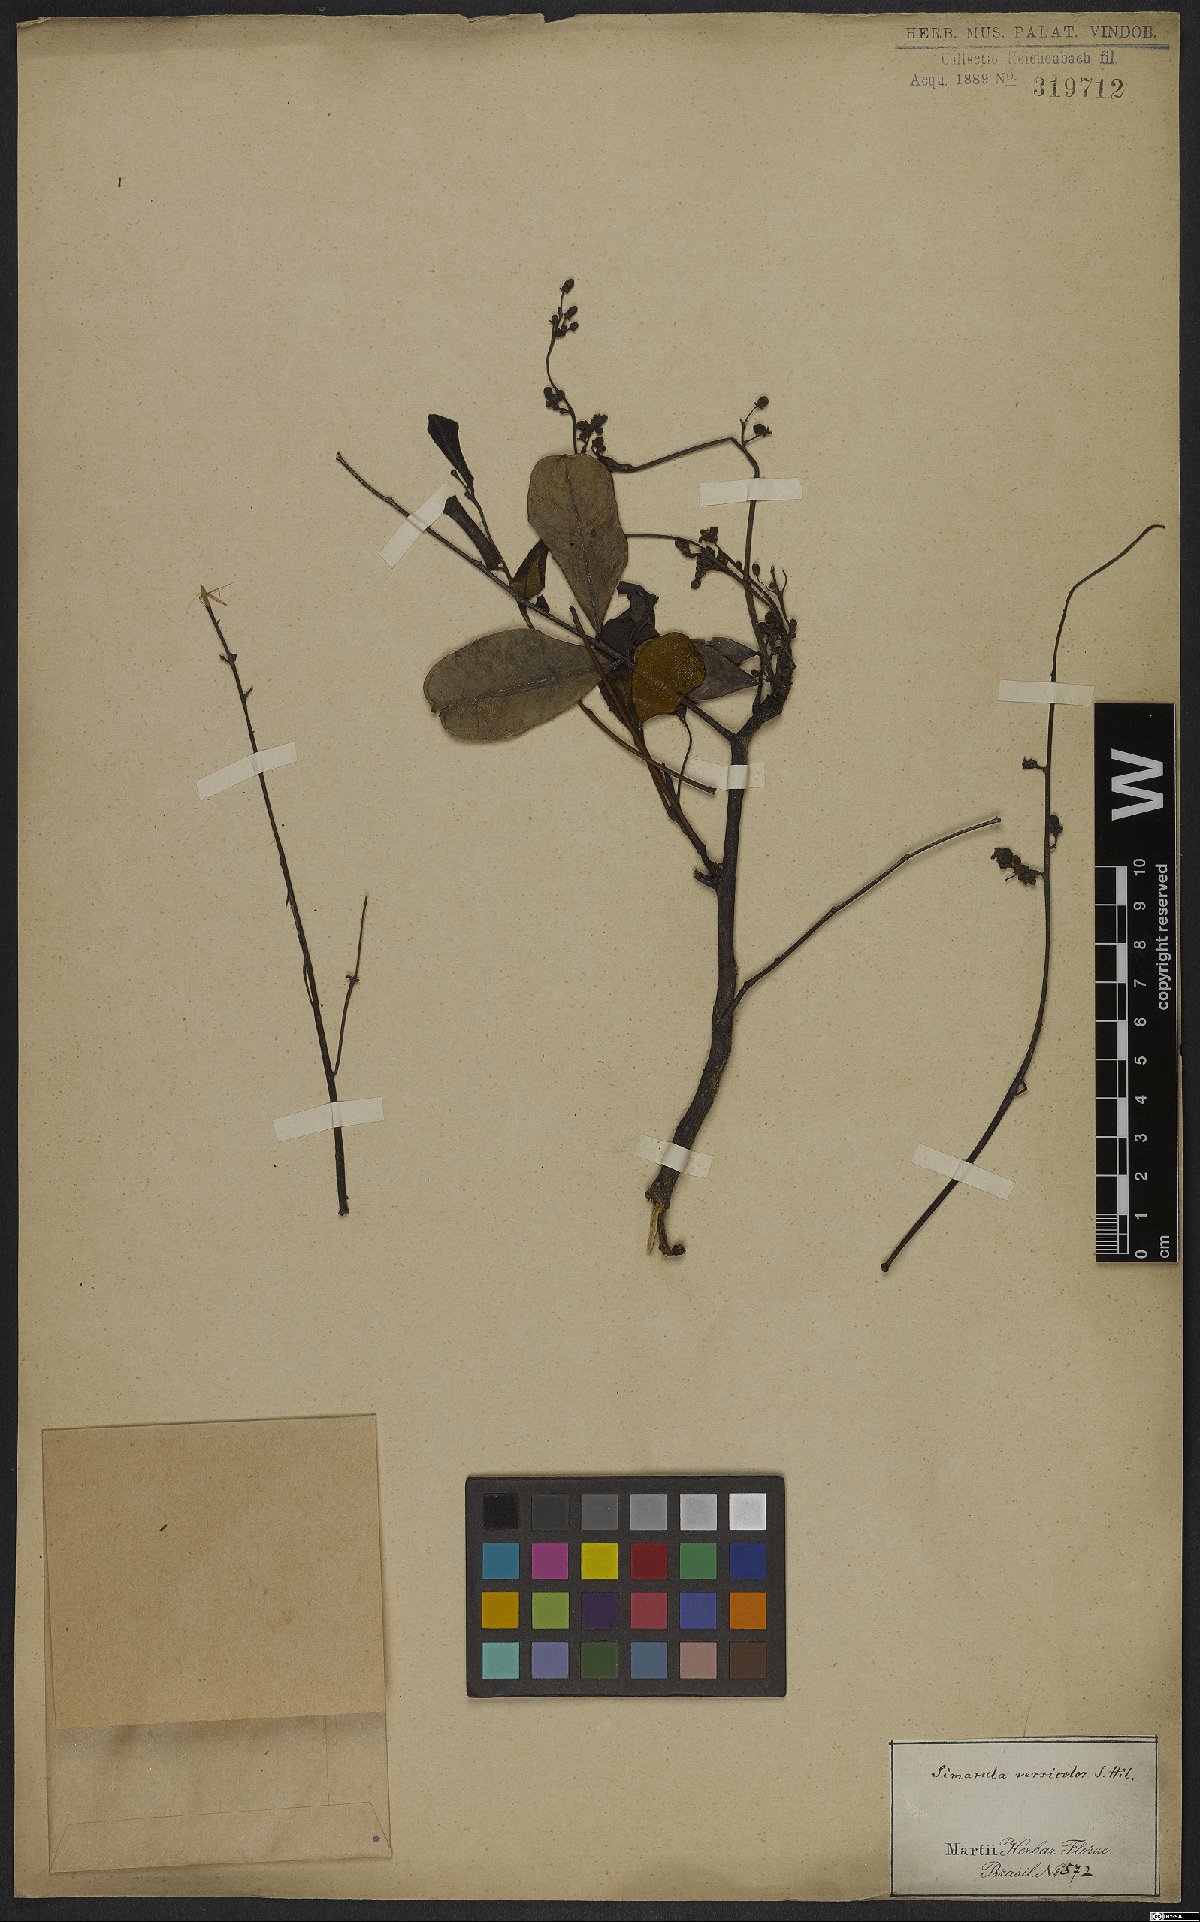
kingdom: Plantae
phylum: Tracheophyta
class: Magnoliopsida
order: Sapindales
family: Simaroubaceae
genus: Simarouba
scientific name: Simarouba versicolor
